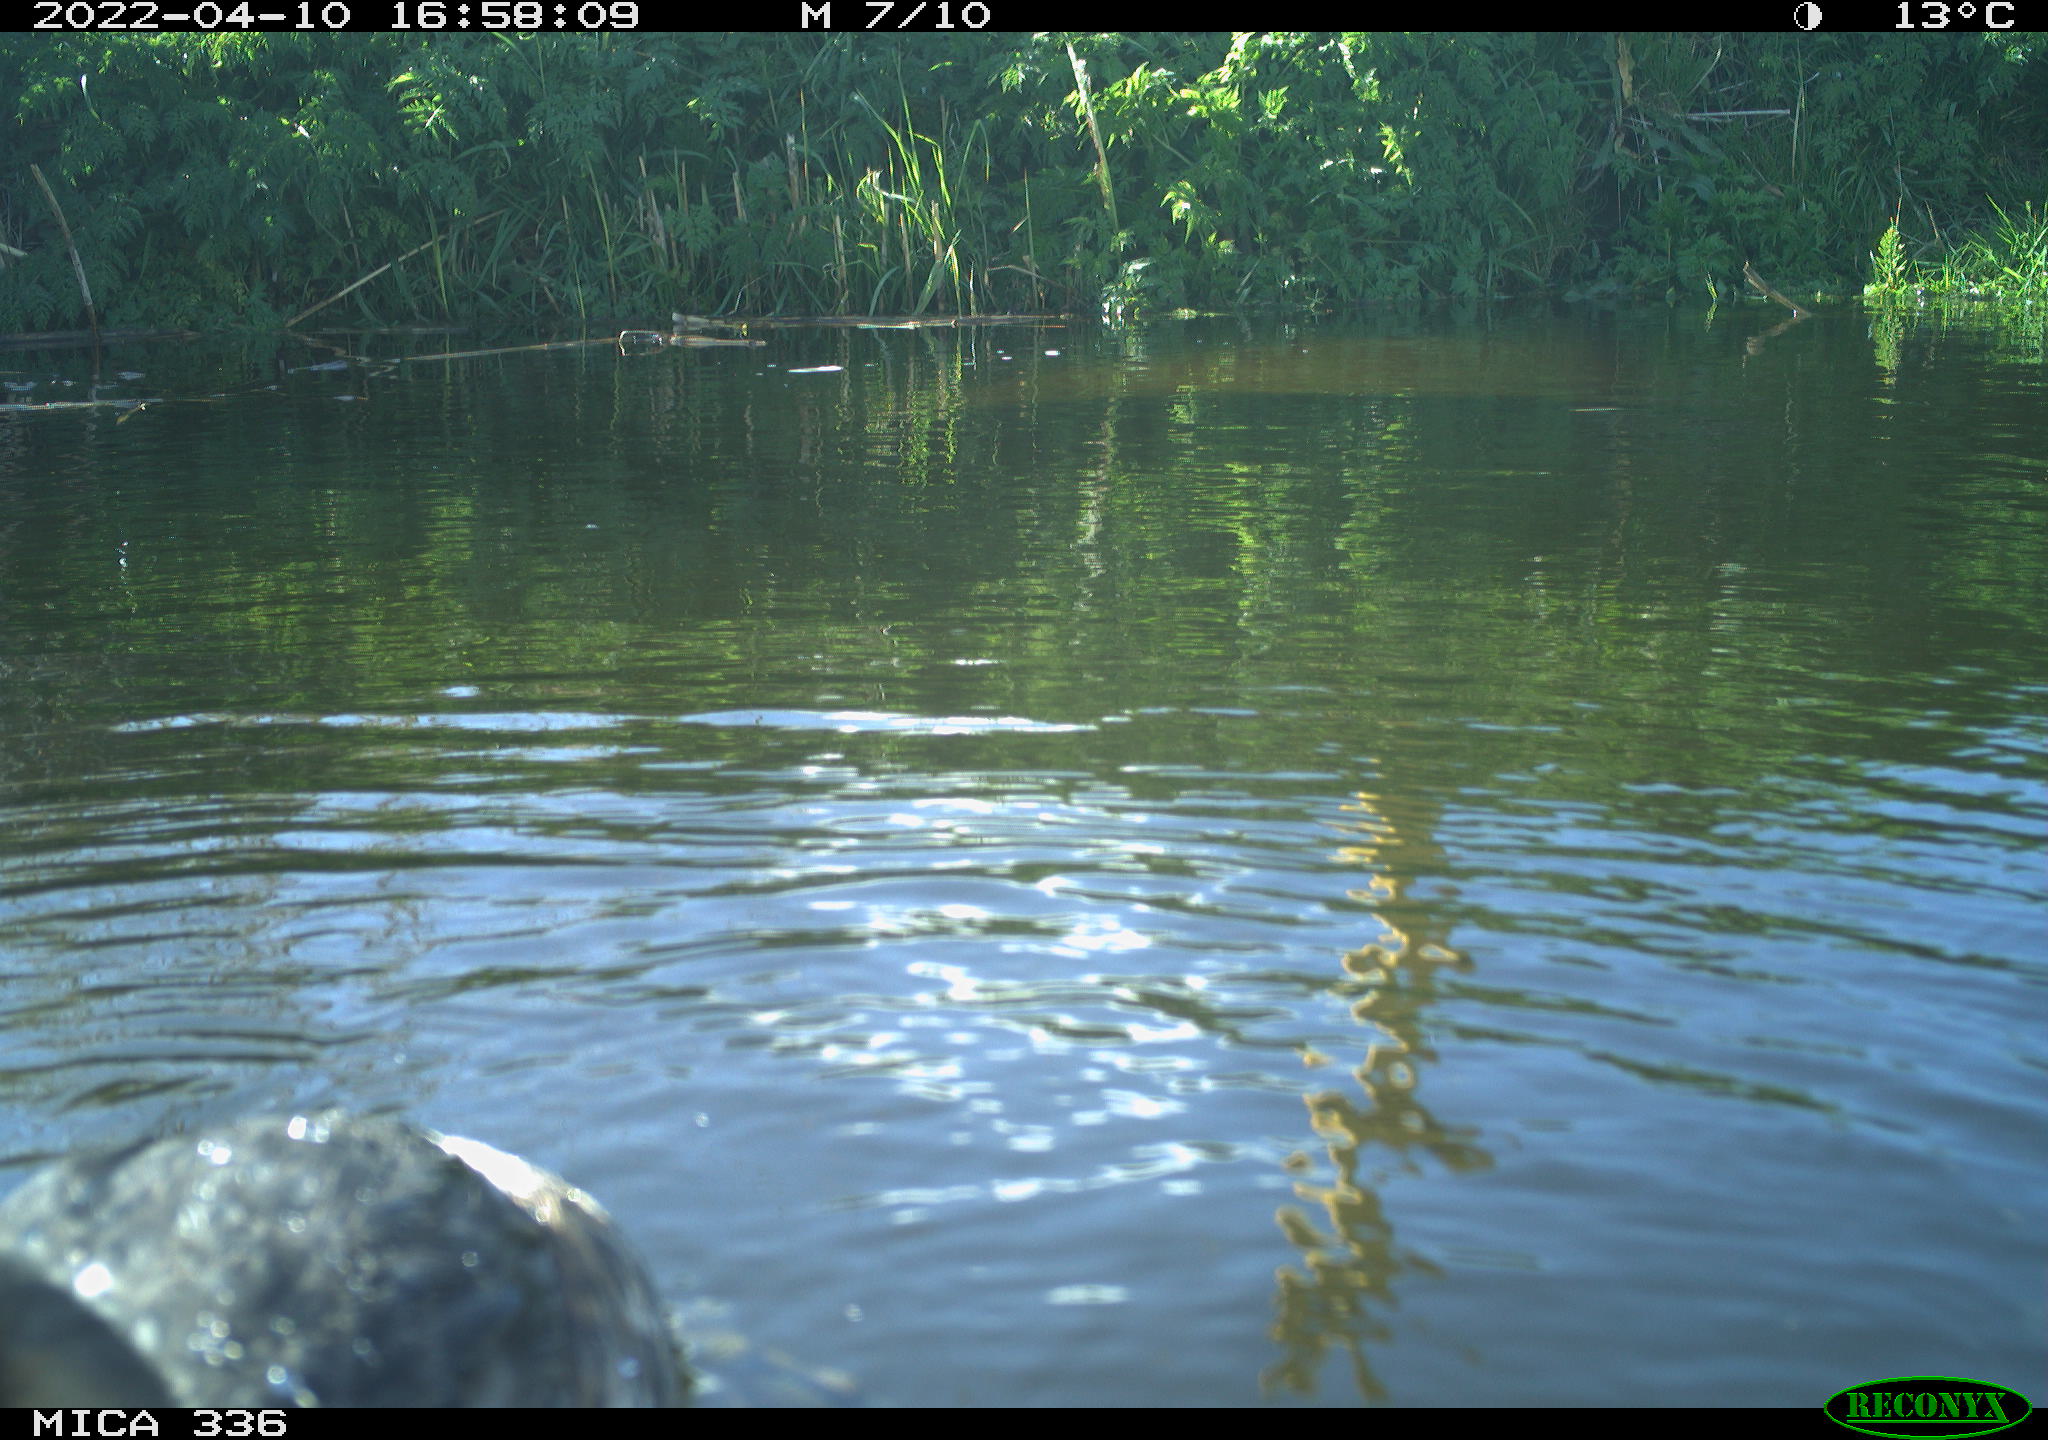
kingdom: Animalia
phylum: Chordata
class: Aves
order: Podicipediformes
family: Podicipedidae
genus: Podiceps
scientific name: Podiceps cristatus
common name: Great crested grebe
